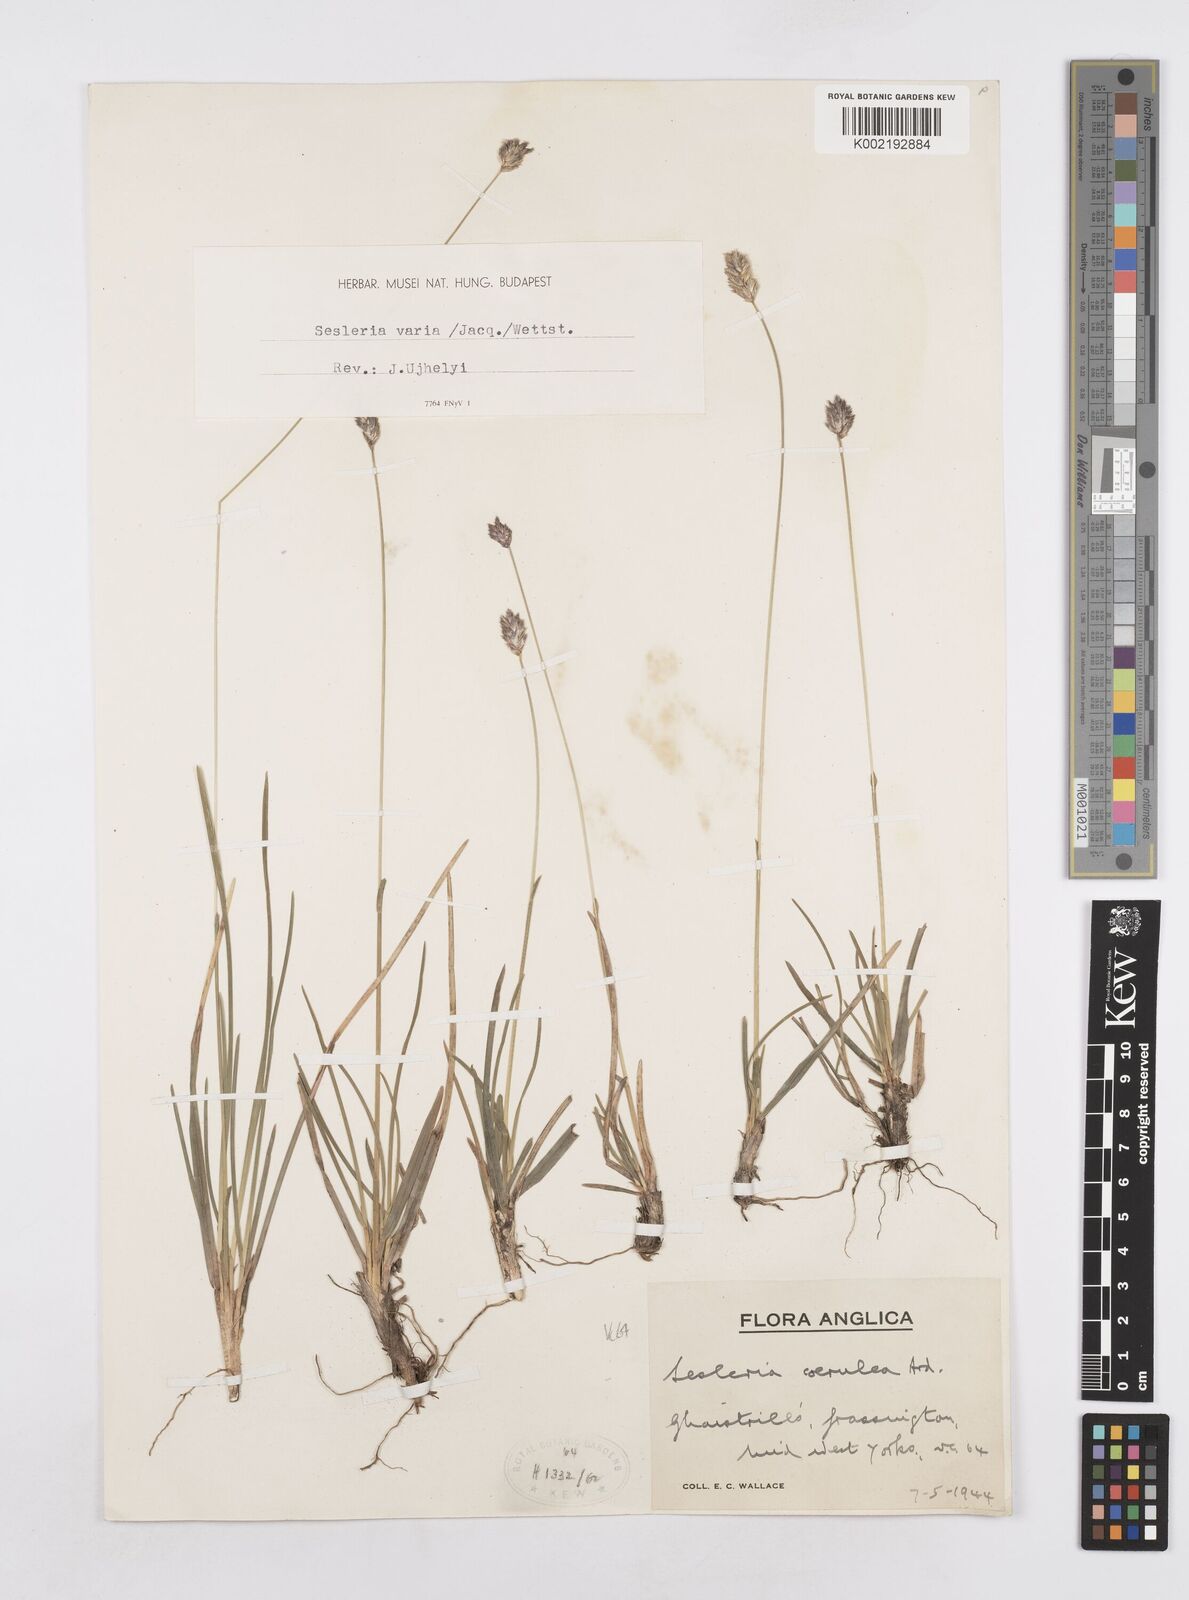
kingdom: Plantae
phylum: Tracheophyta
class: Liliopsida
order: Poales
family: Poaceae
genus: Sesleria
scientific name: Sesleria caerulea
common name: Blue moor-grass
